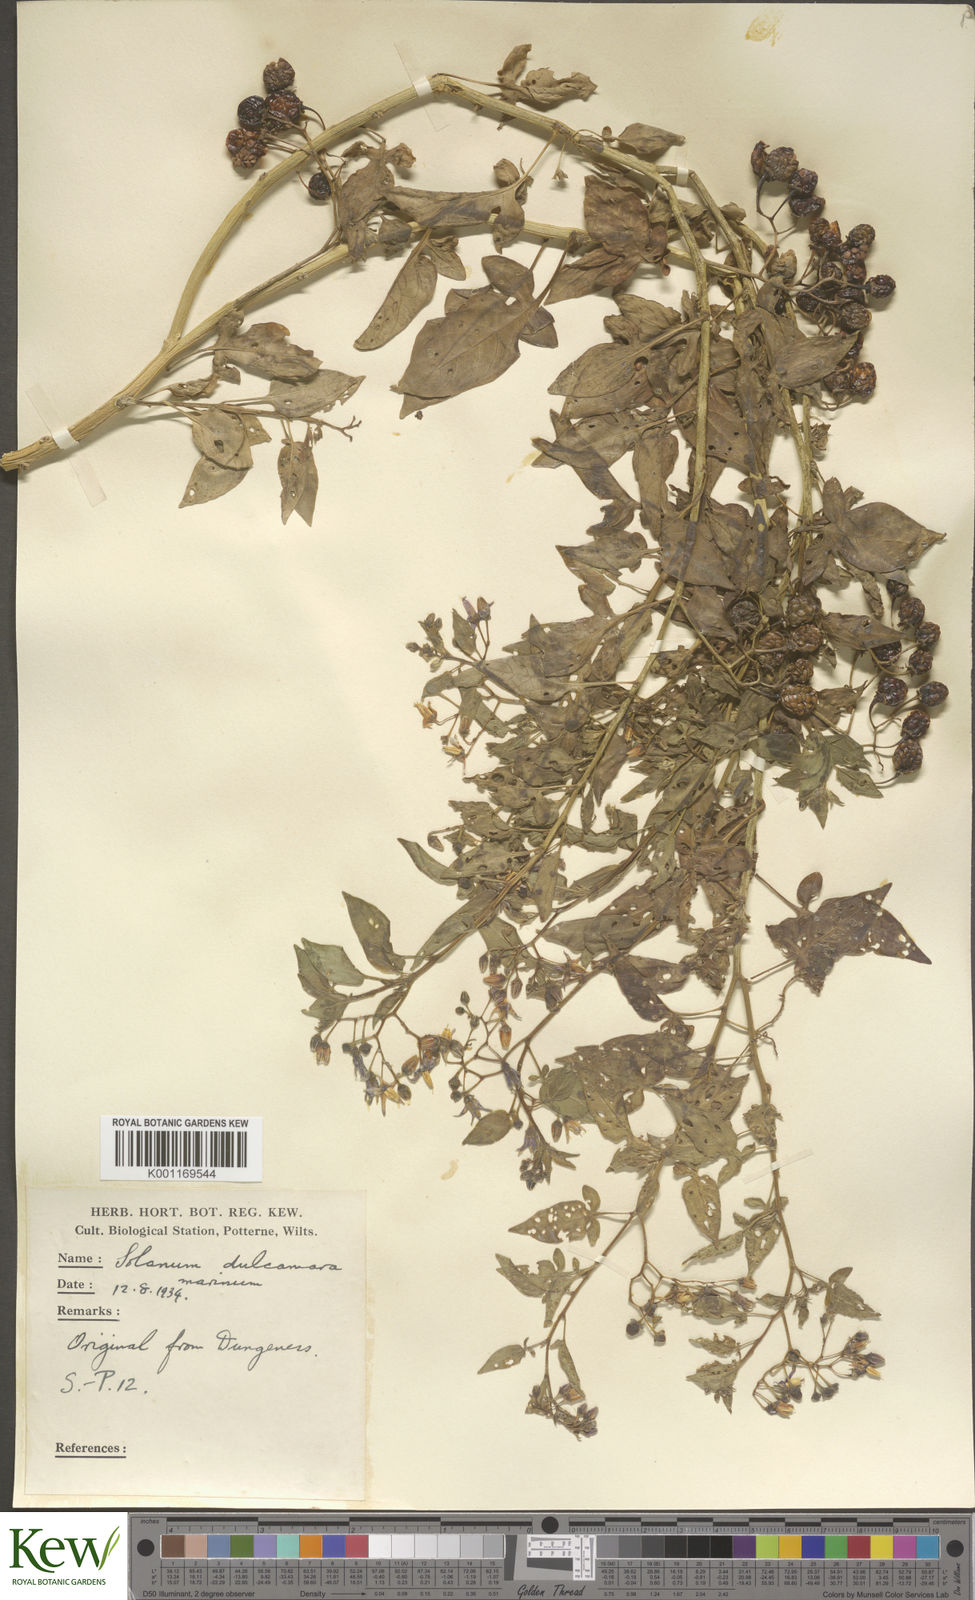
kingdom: Plantae
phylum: Tracheophyta
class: Magnoliopsida
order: Solanales
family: Solanaceae
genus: Solanum
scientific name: Solanum dulcamara
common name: Climbing nightshade
